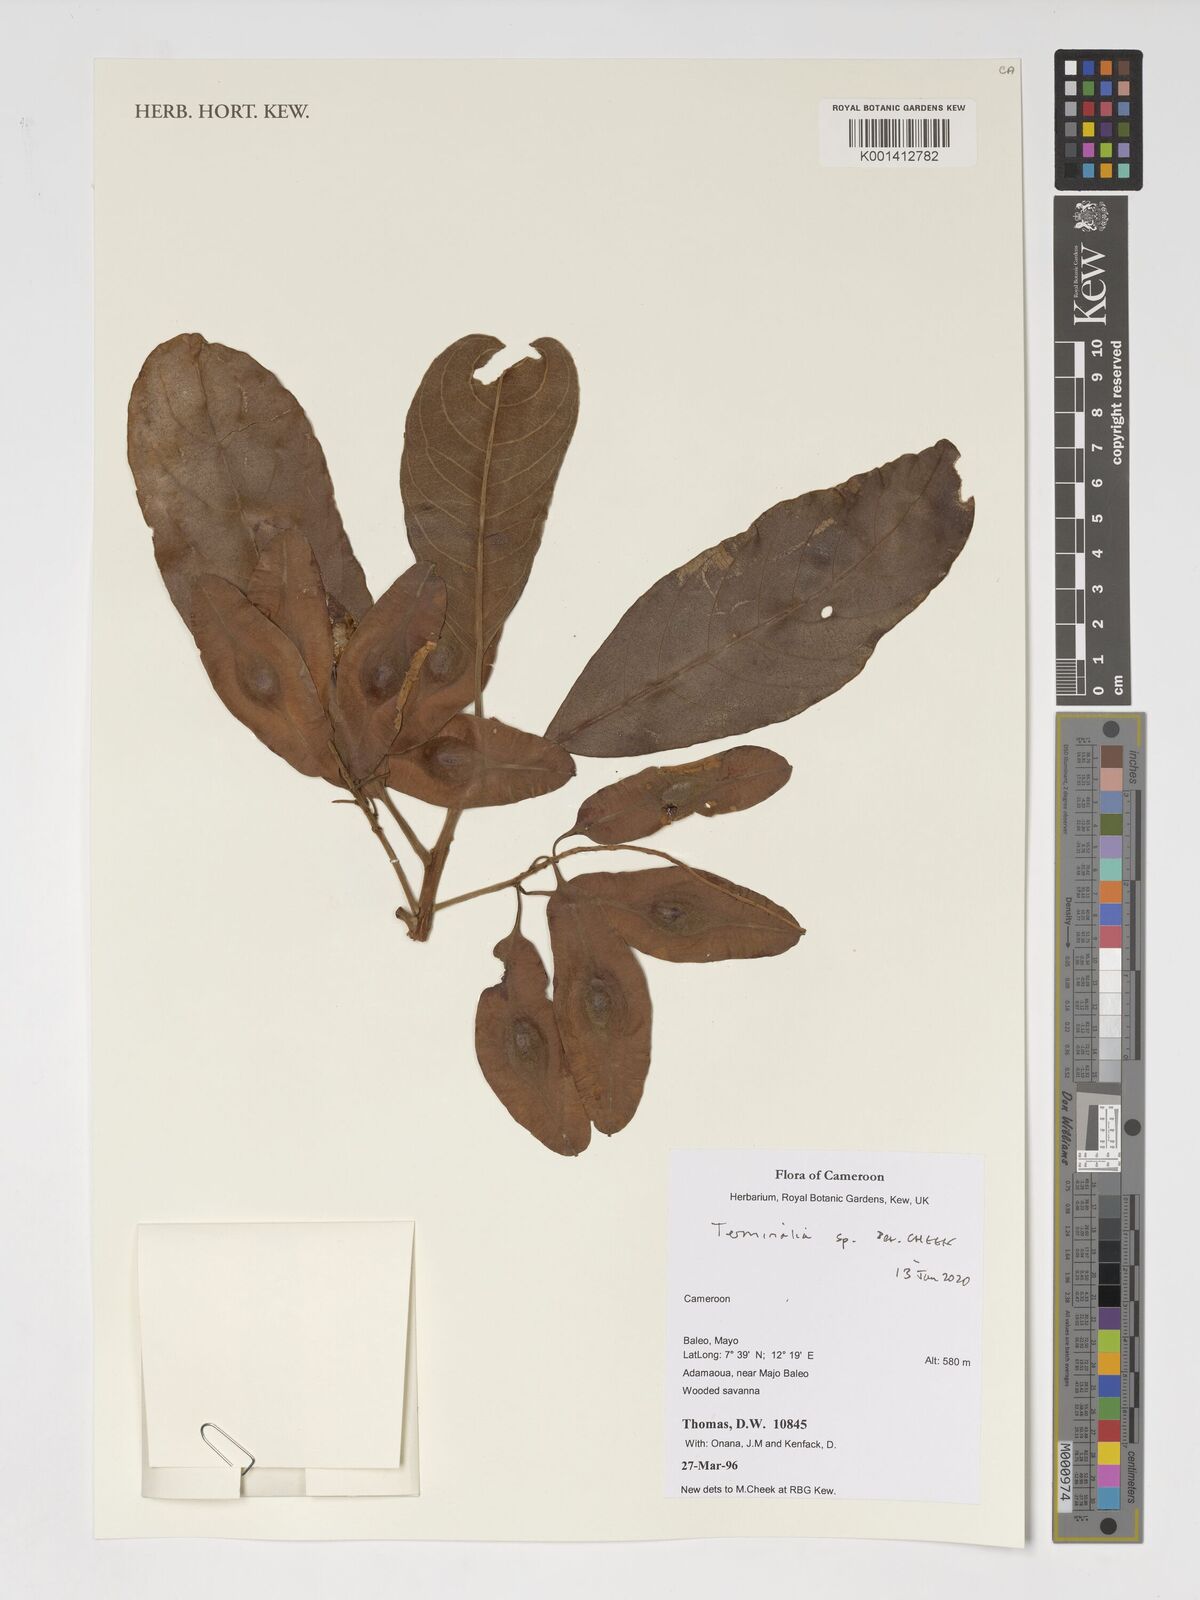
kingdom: Plantae
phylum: Tracheophyta
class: Magnoliopsida
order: Myrtales
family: Combretaceae
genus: Terminalia
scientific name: Terminalia
